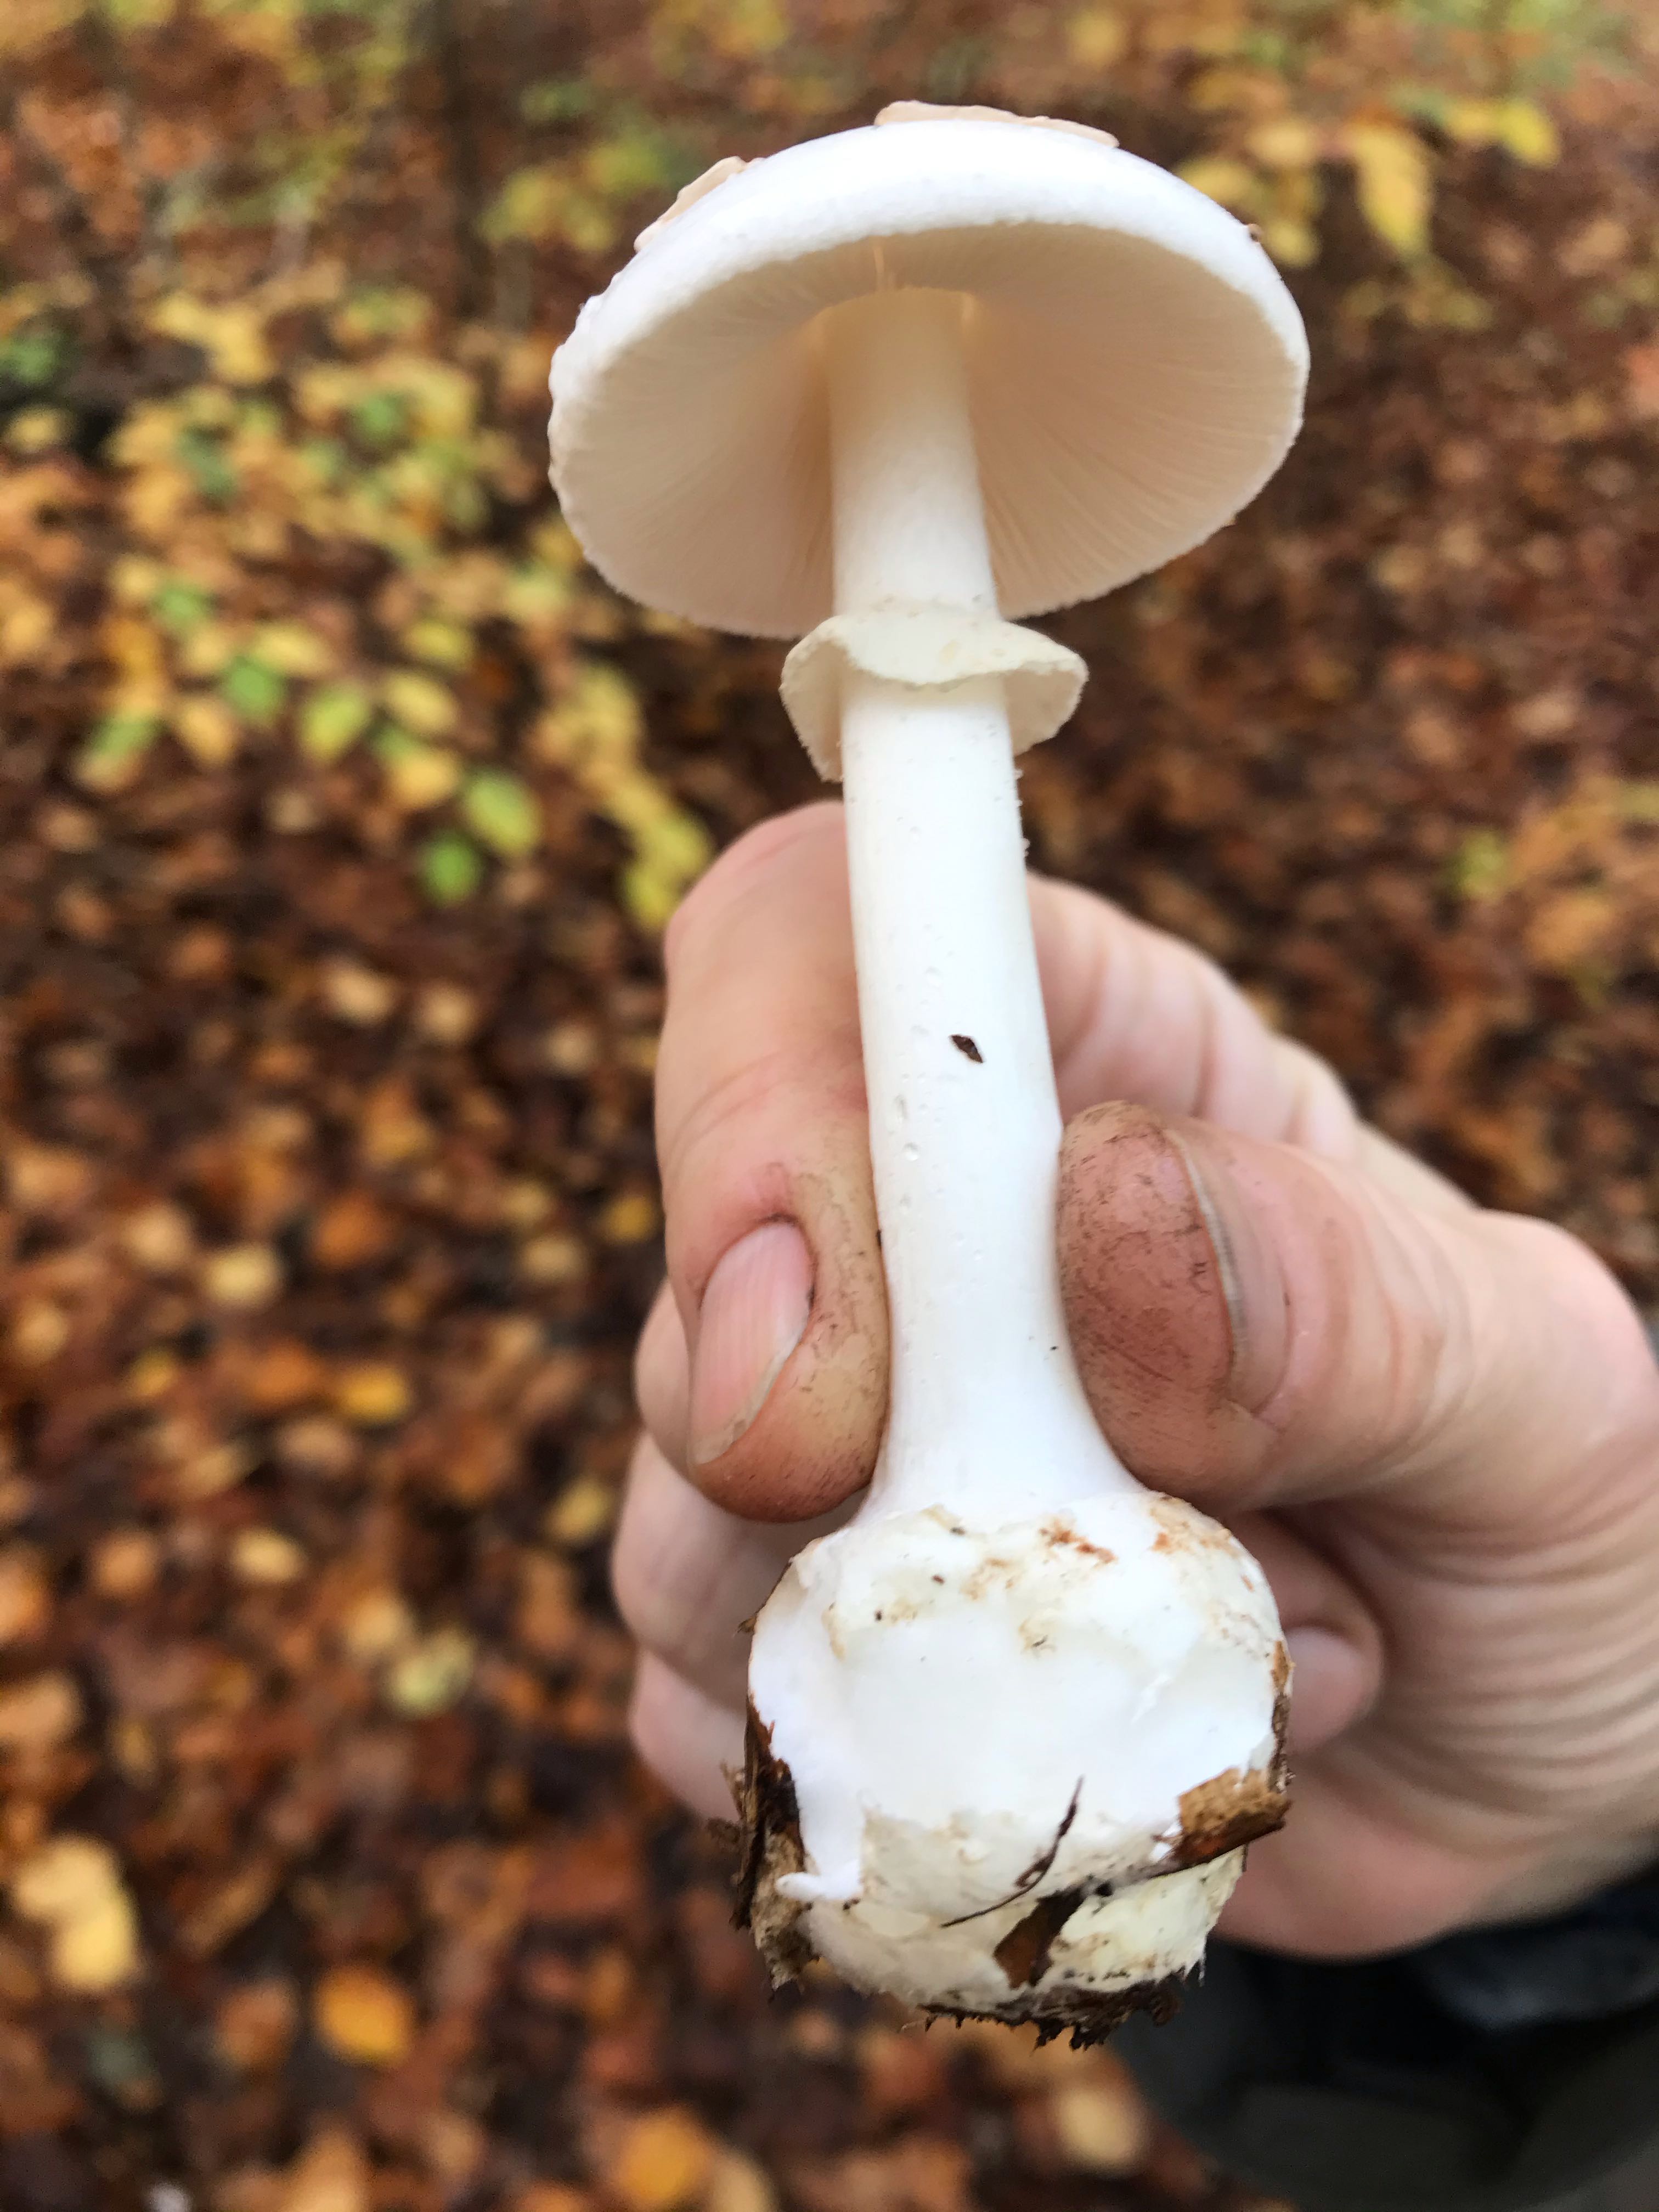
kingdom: Fungi
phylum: Basidiomycota
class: Agaricomycetes
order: Agaricales
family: Amanitaceae
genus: Amanita
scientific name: Amanita citrina
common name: kugleknoldet fluesvamp
